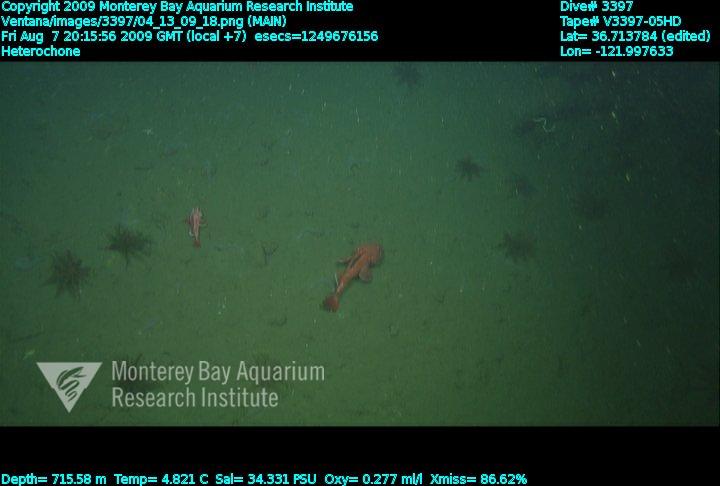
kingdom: Animalia
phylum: Porifera
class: Hexactinellida
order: Sceptrulophora
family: Aphrocallistidae
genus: Heterochone
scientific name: Heterochone
